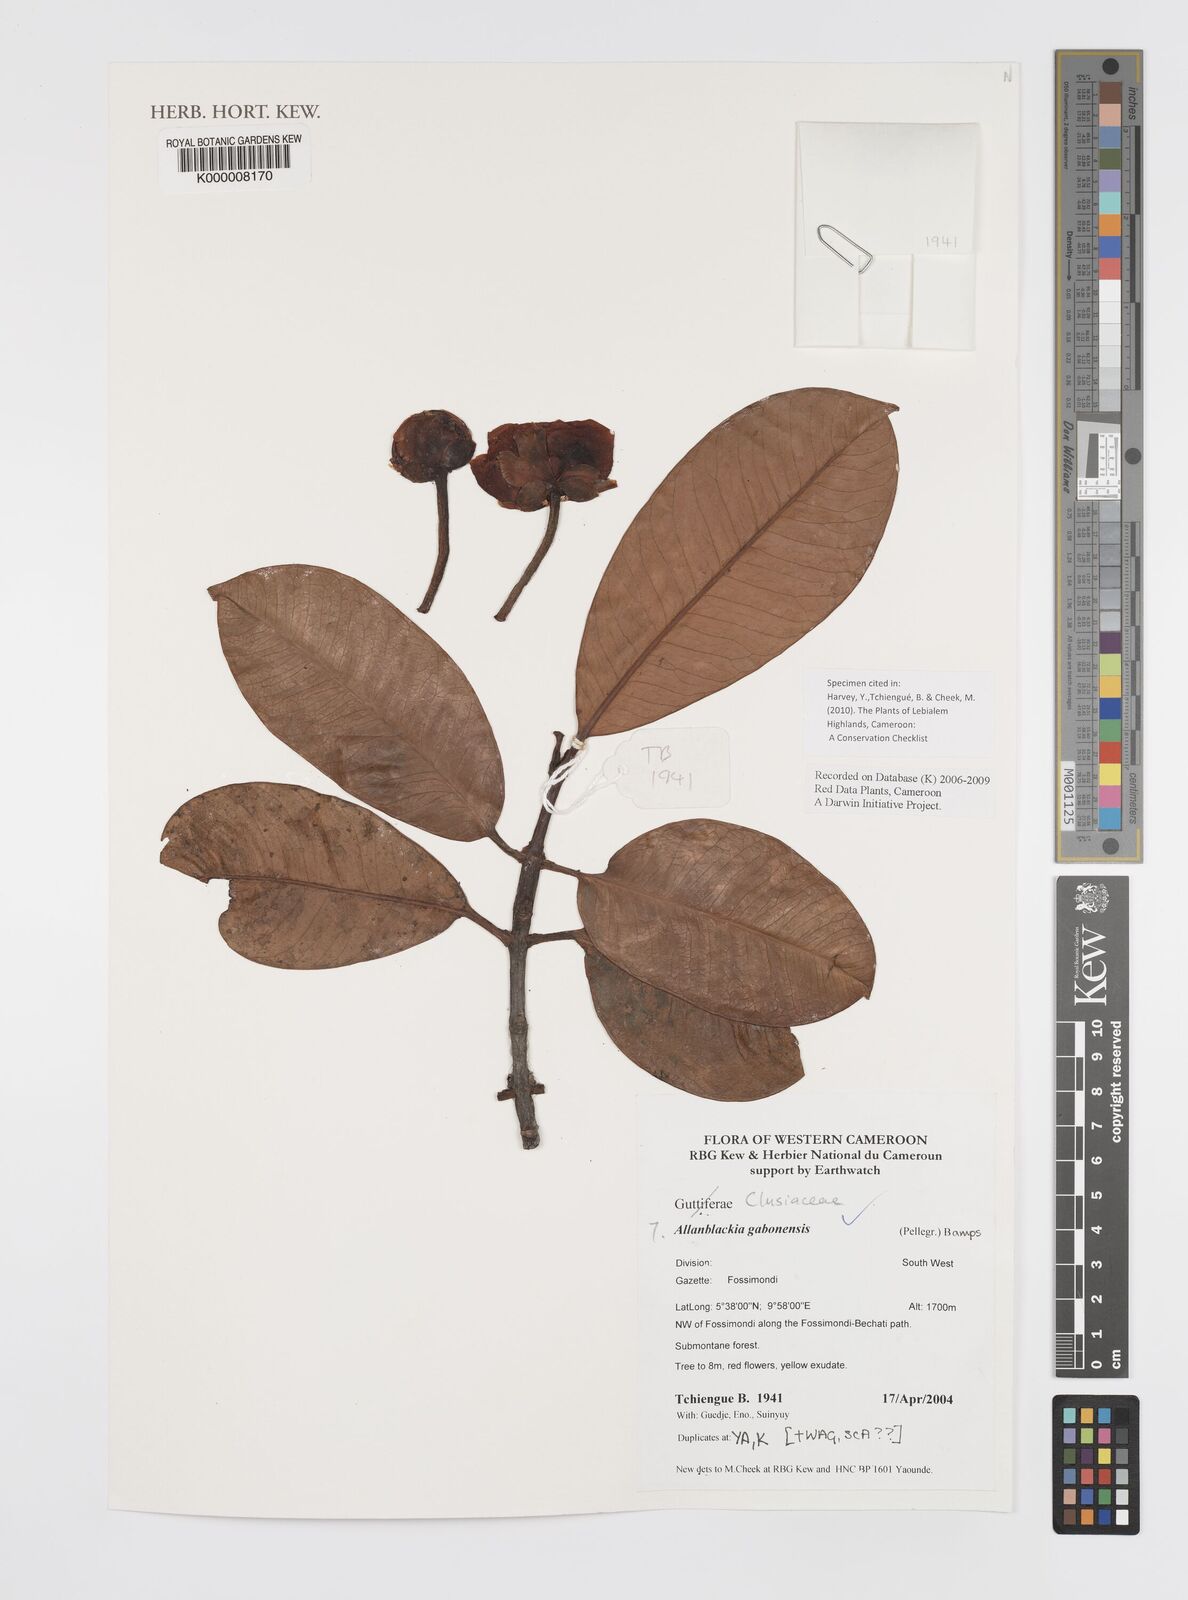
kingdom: Plantae
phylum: Tracheophyta
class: Magnoliopsida
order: Malpighiales
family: Clusiaceae
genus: Allanblackia
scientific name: Allanblackia gabonensis
